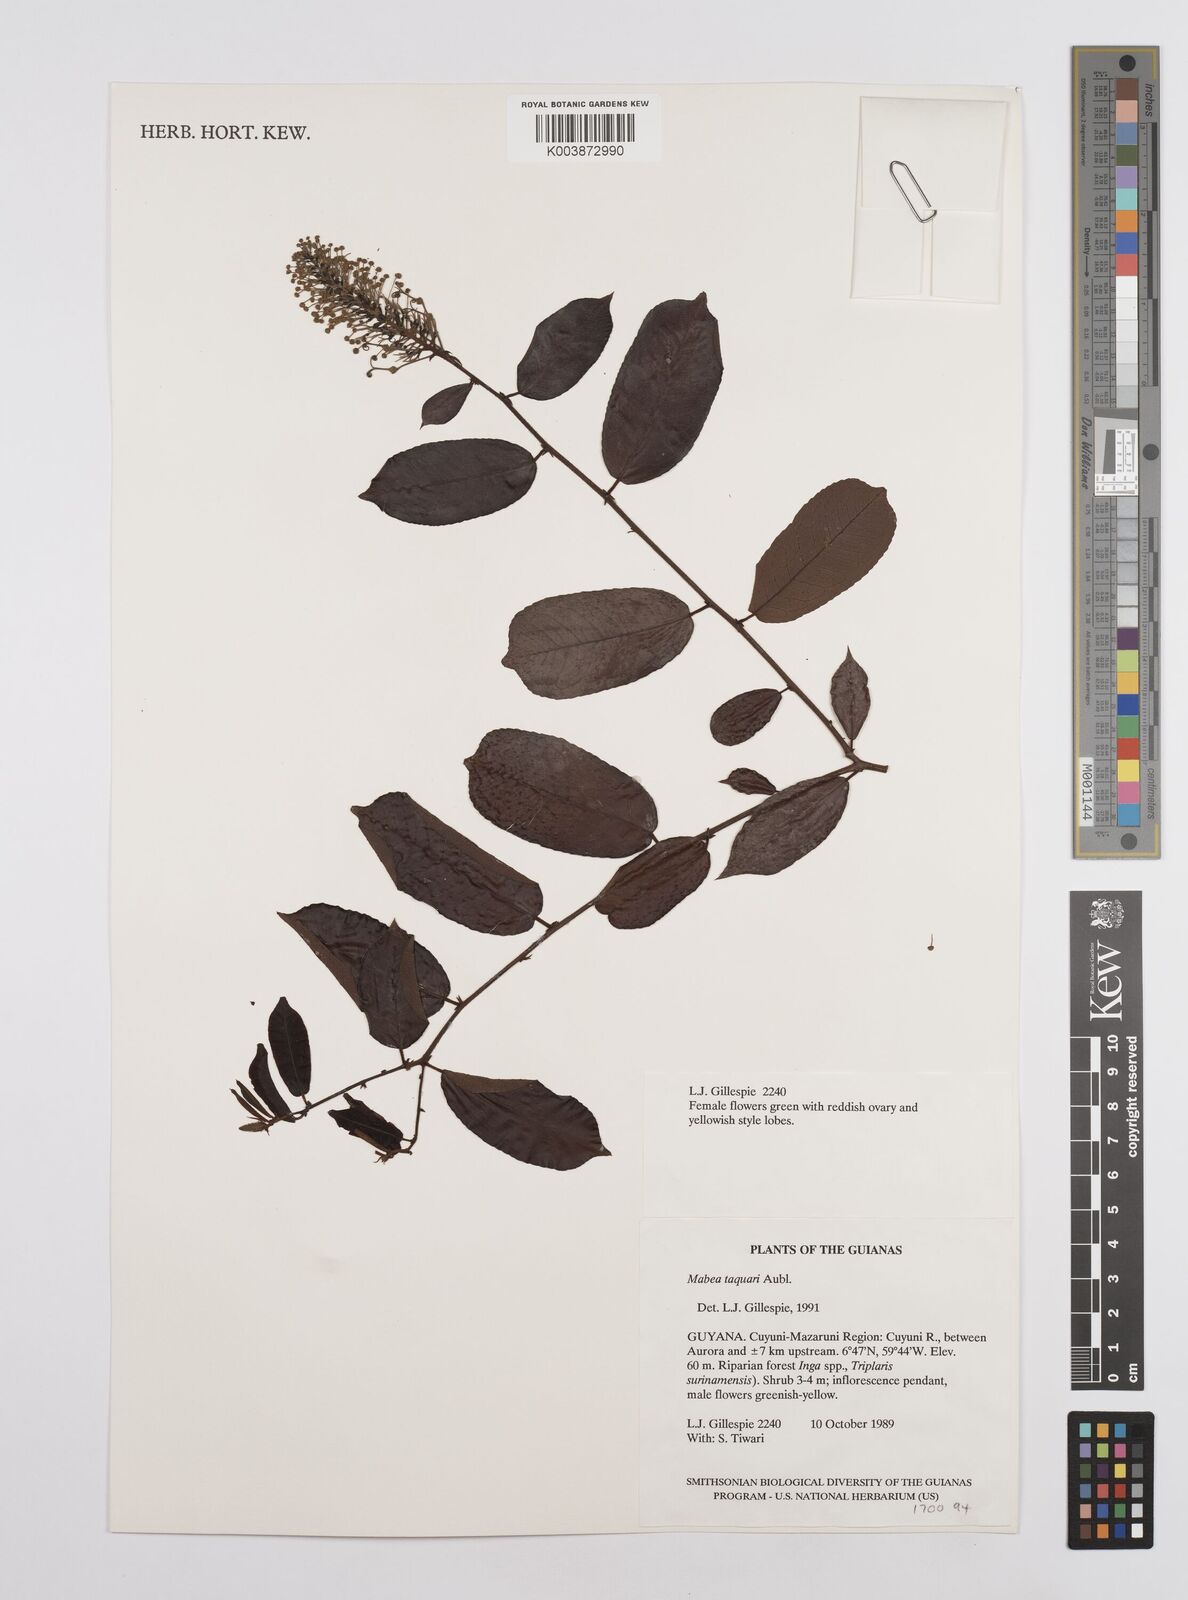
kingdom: Plantae
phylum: Tracheophyta
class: Magnoliopsida
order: Malpighiales
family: Euphorbiaceae
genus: Mabea
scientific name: Mabea taquari
